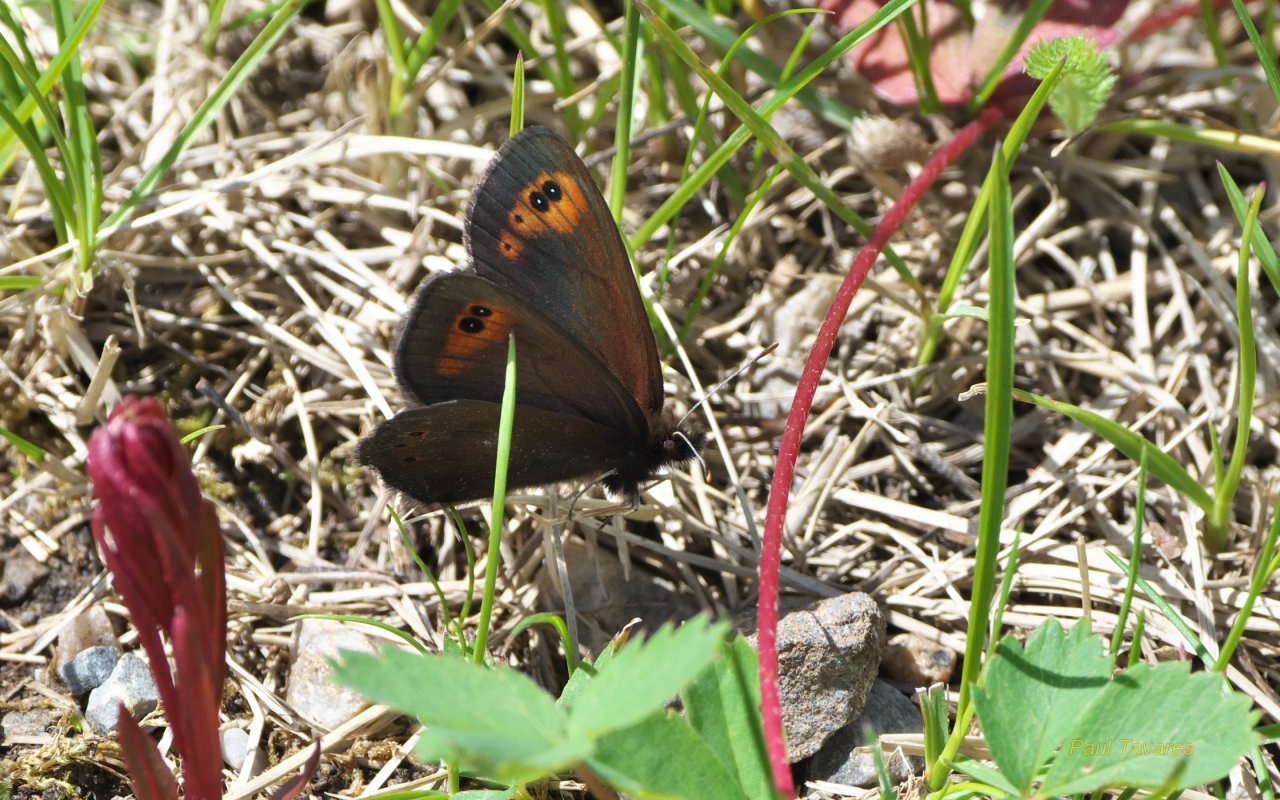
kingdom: Animalia
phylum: Arthropoda
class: Insecta
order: Lepidoptera
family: Nymphalidae
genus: Erebia
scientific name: Erebia epipsodea
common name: Common Alpine
